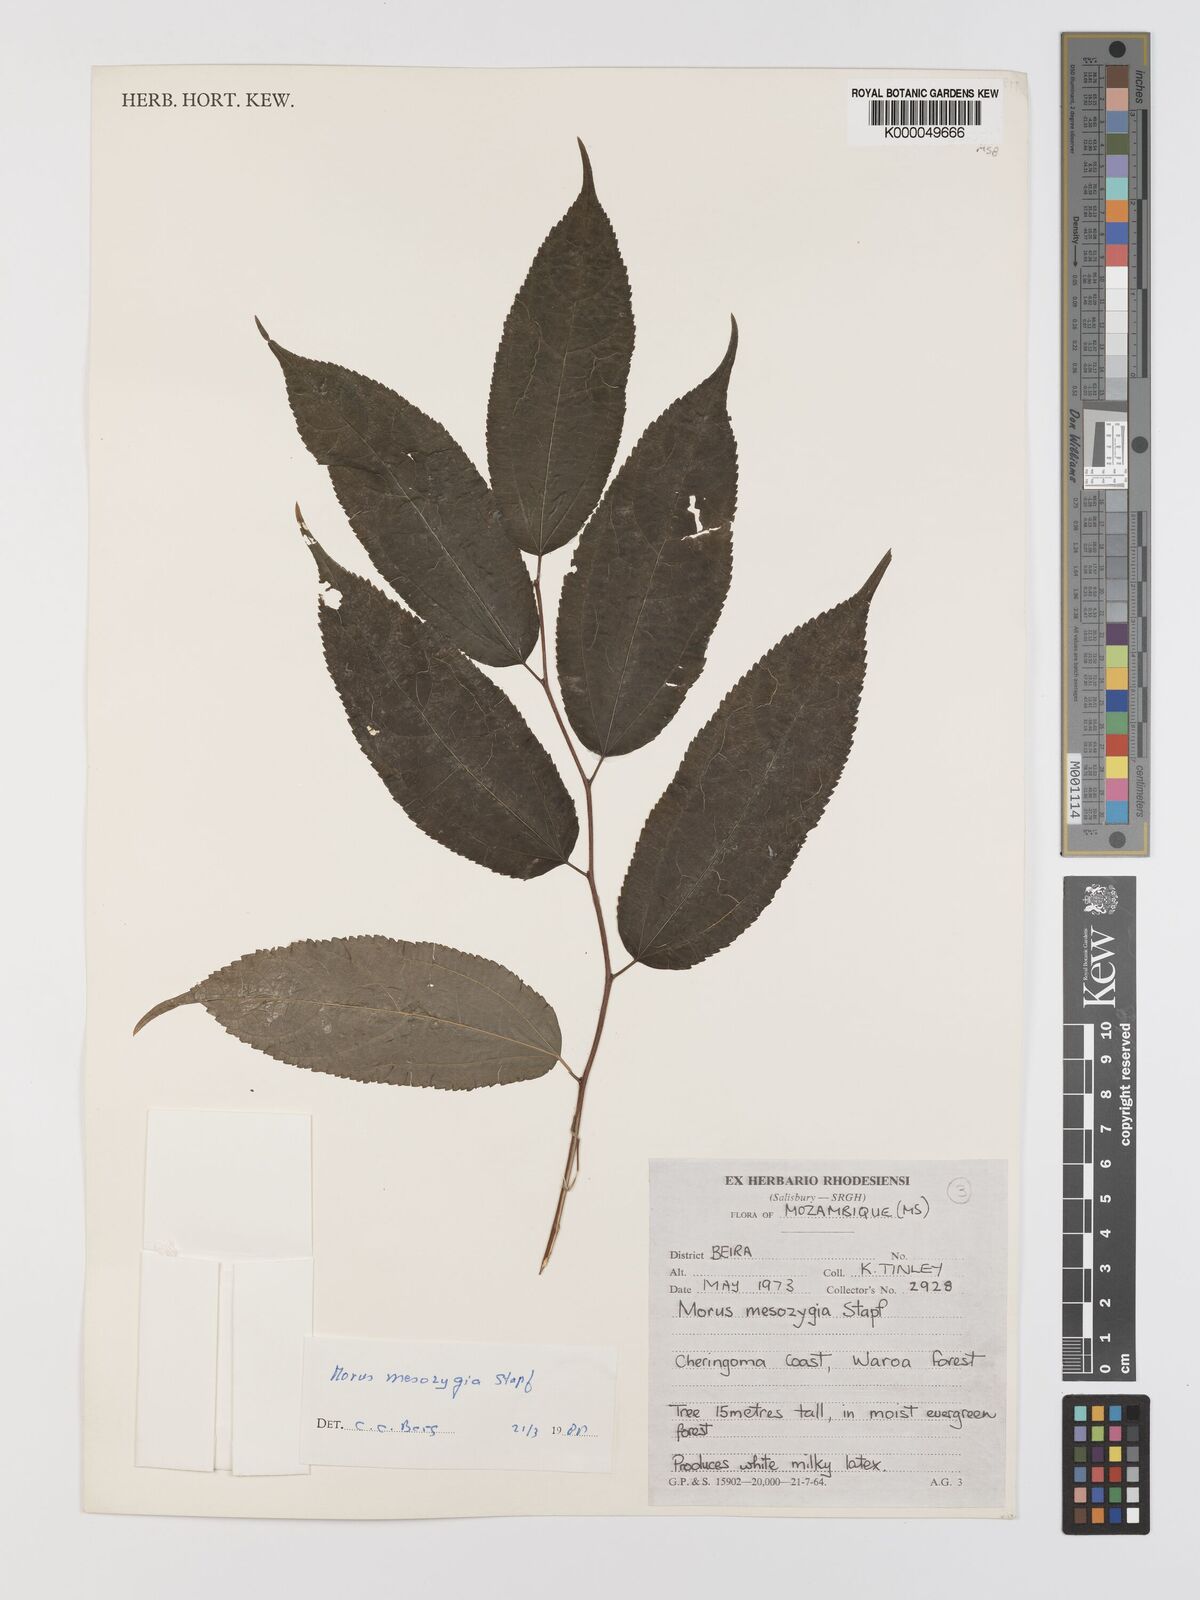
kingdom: Plantae
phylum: Tracheophyta
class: Magnoliopsida
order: Rosales
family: Moraceae
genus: Afromorus
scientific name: Afromorus mesozygia
